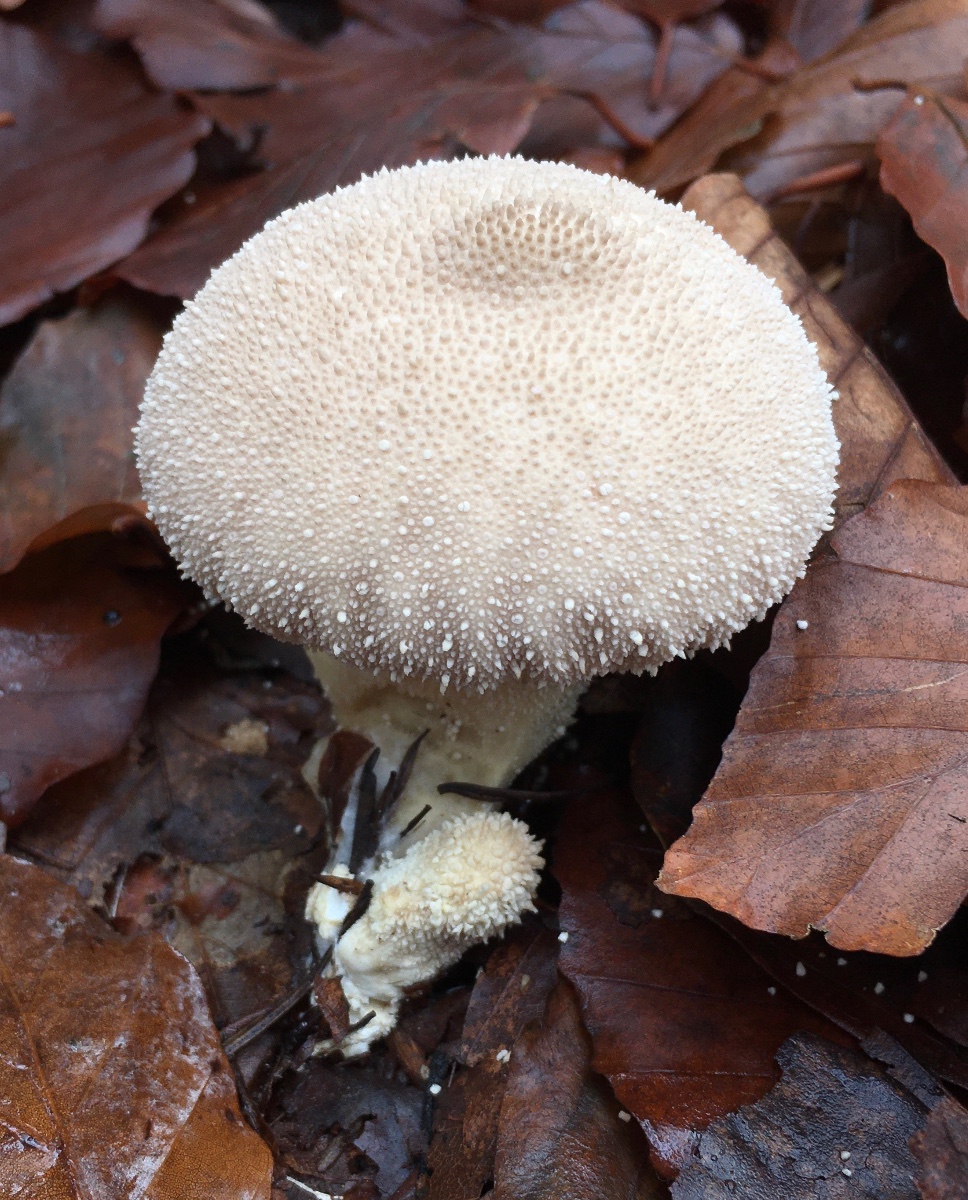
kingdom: Fungi
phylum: Basidiomycota
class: Agaricomycetes
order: Agaricales
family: Lycoperdaceae
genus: Lycoperdon
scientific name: Lycoperdon perlatum
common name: krystal-støvbold
